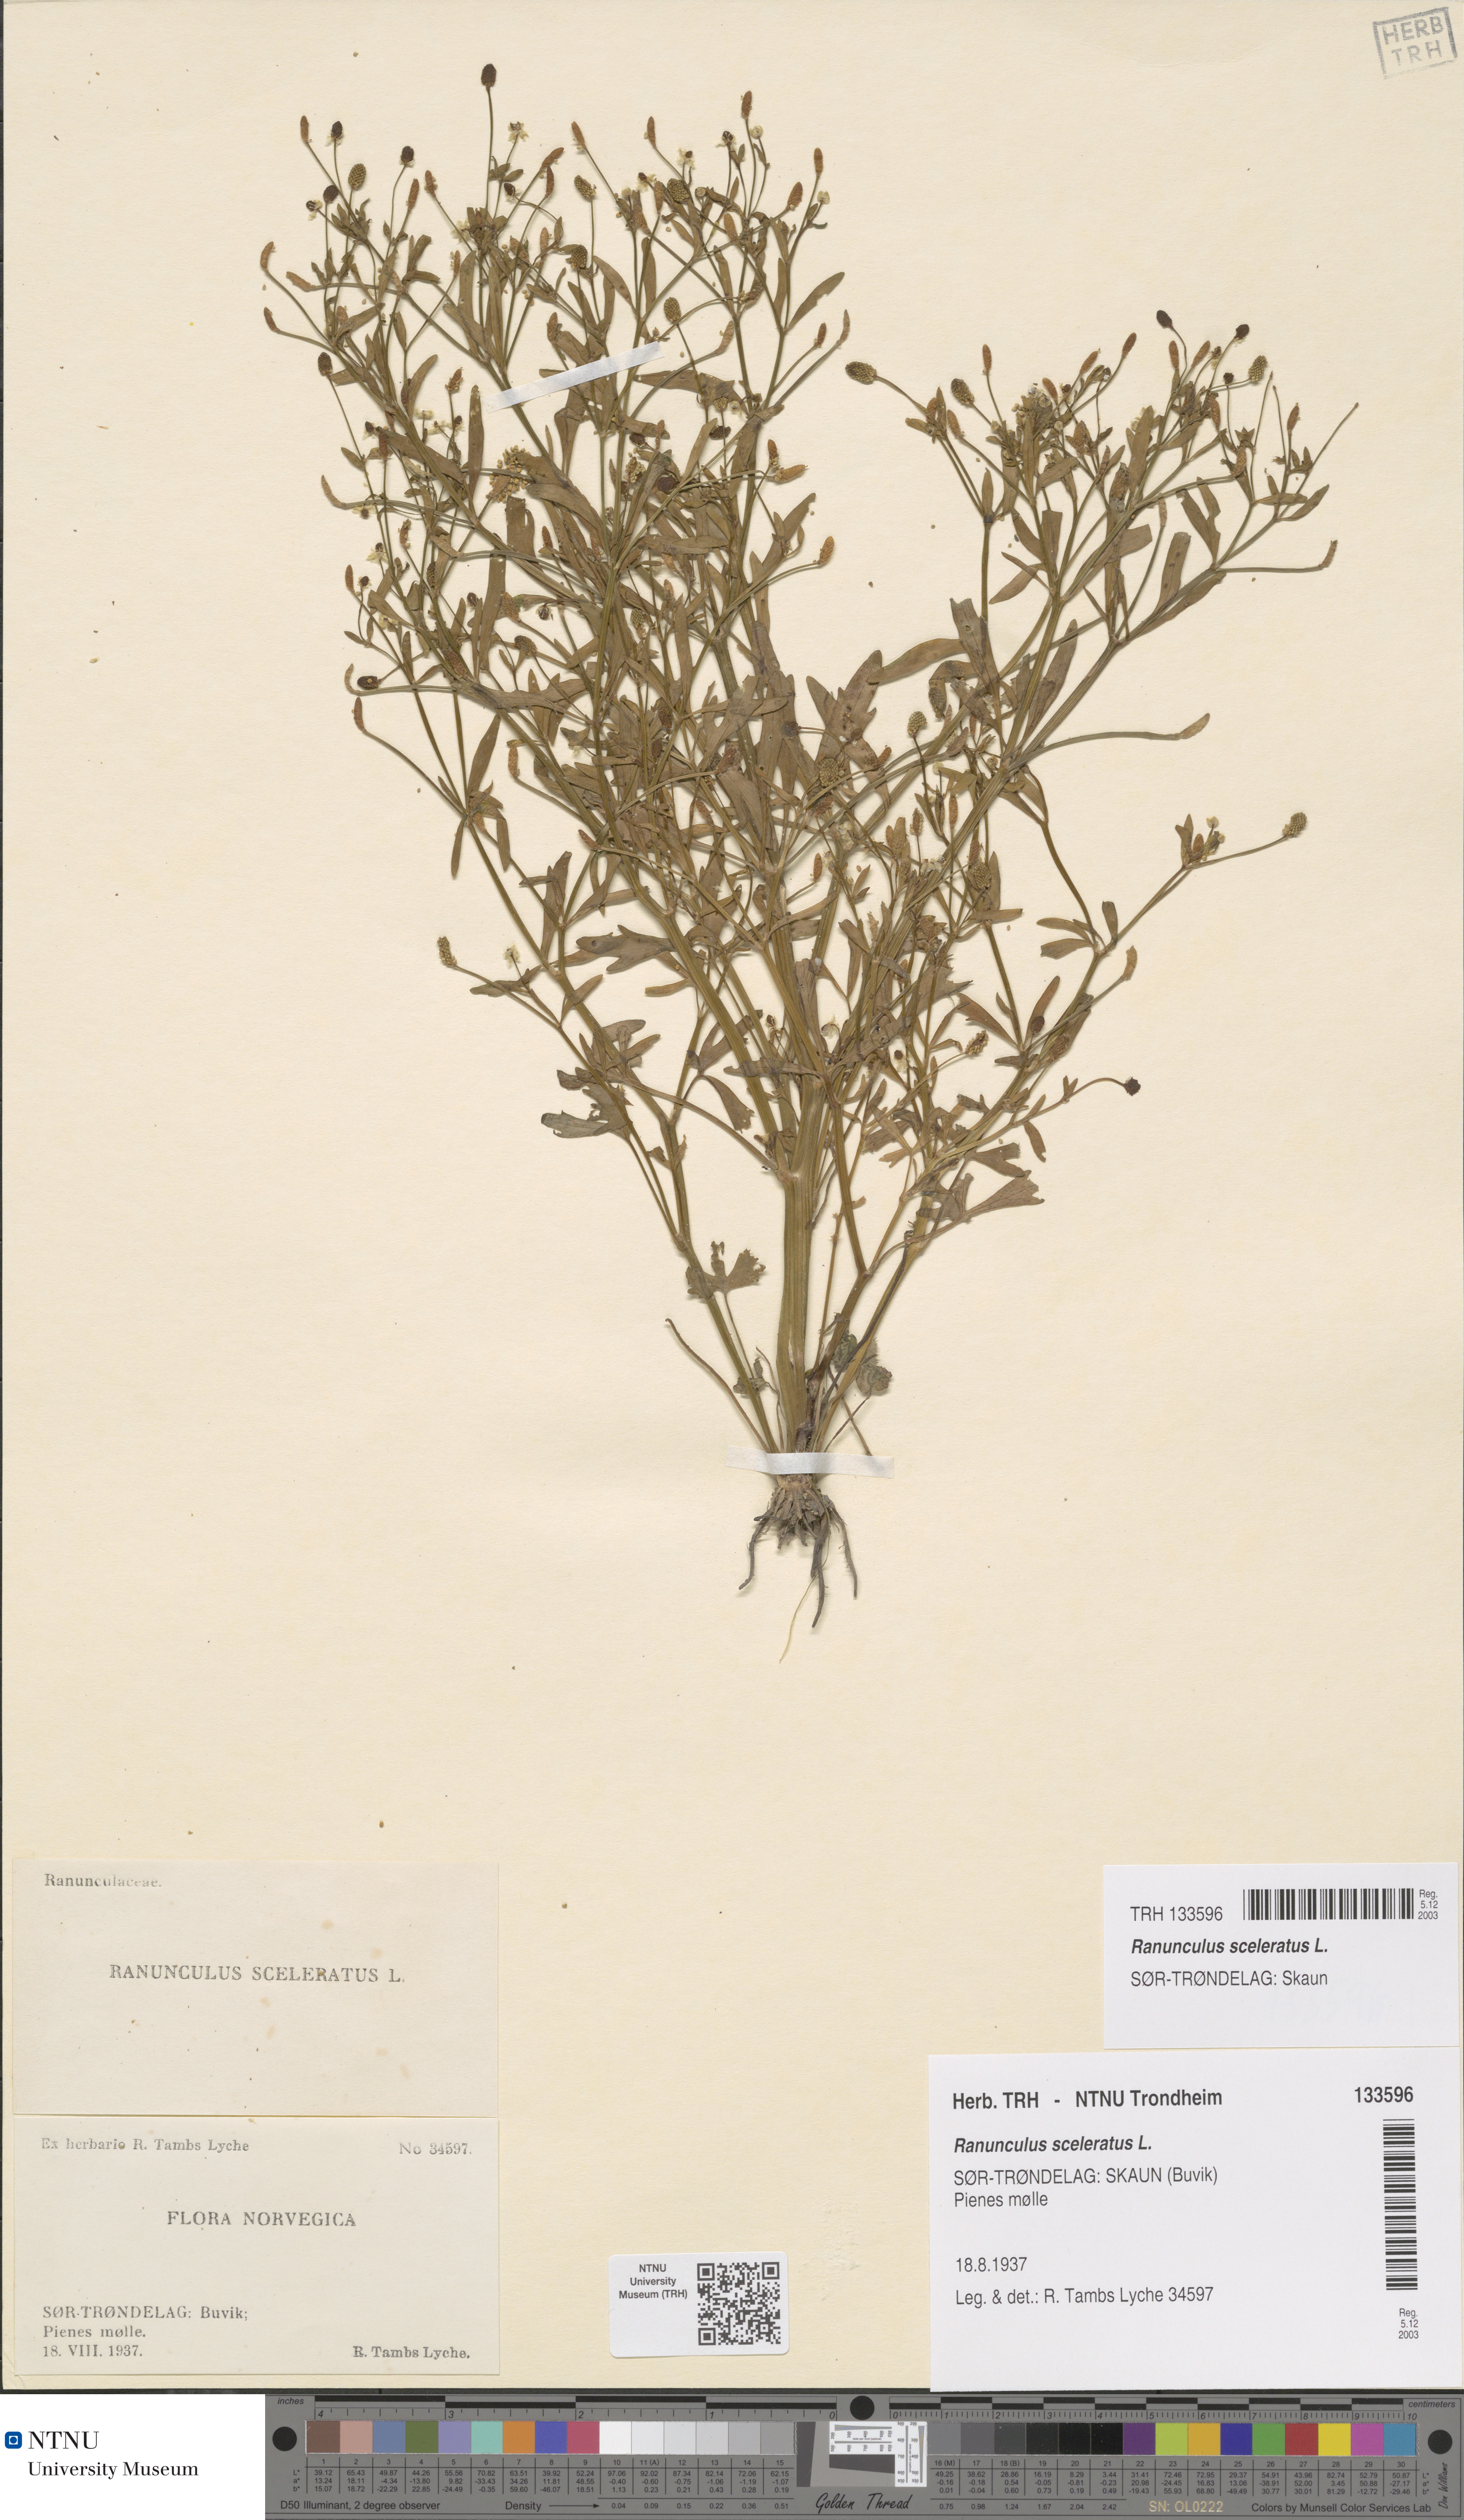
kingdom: Plantae
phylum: Tracheophyta
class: Magnoliopsida
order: Ranunculales
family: Ranunculaceae
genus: Ranunculus
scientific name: Ranunculus sceleratus
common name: Celery-leaved buttercup
